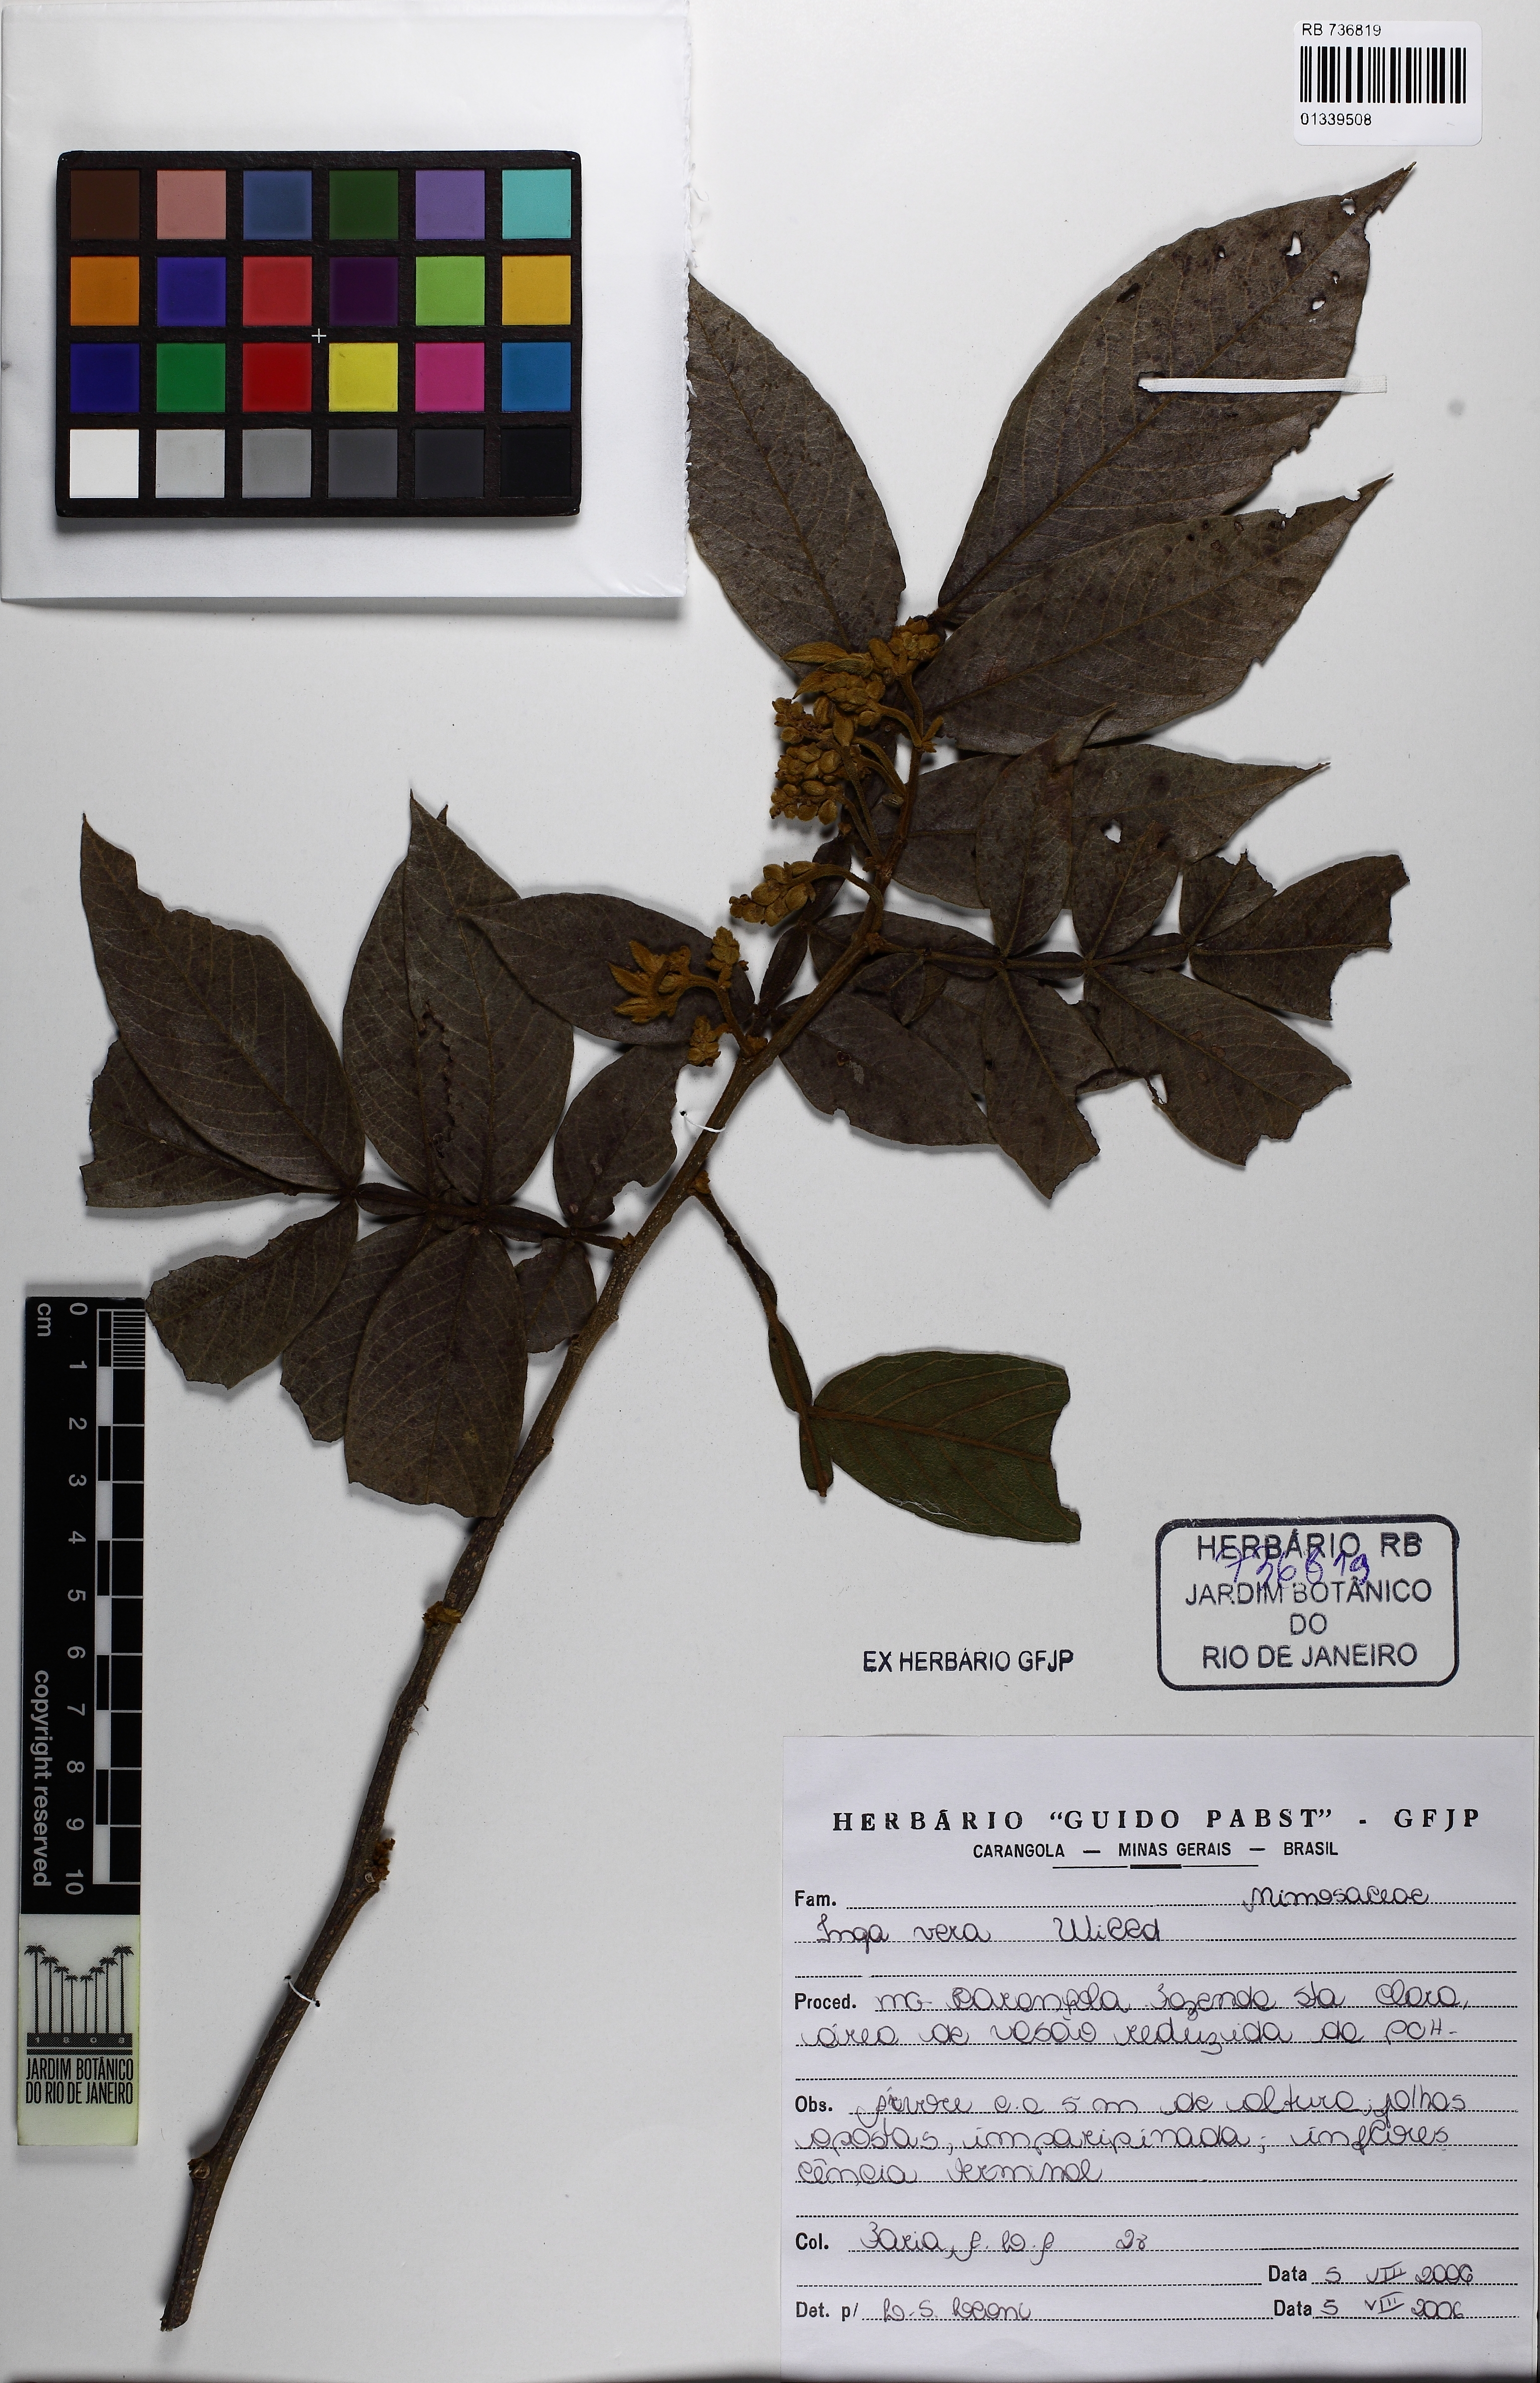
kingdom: Plantae
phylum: Tracheophyta
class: Magnoliopsida
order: Fabales
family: Fabaceae
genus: Inga
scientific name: Inga affinis
